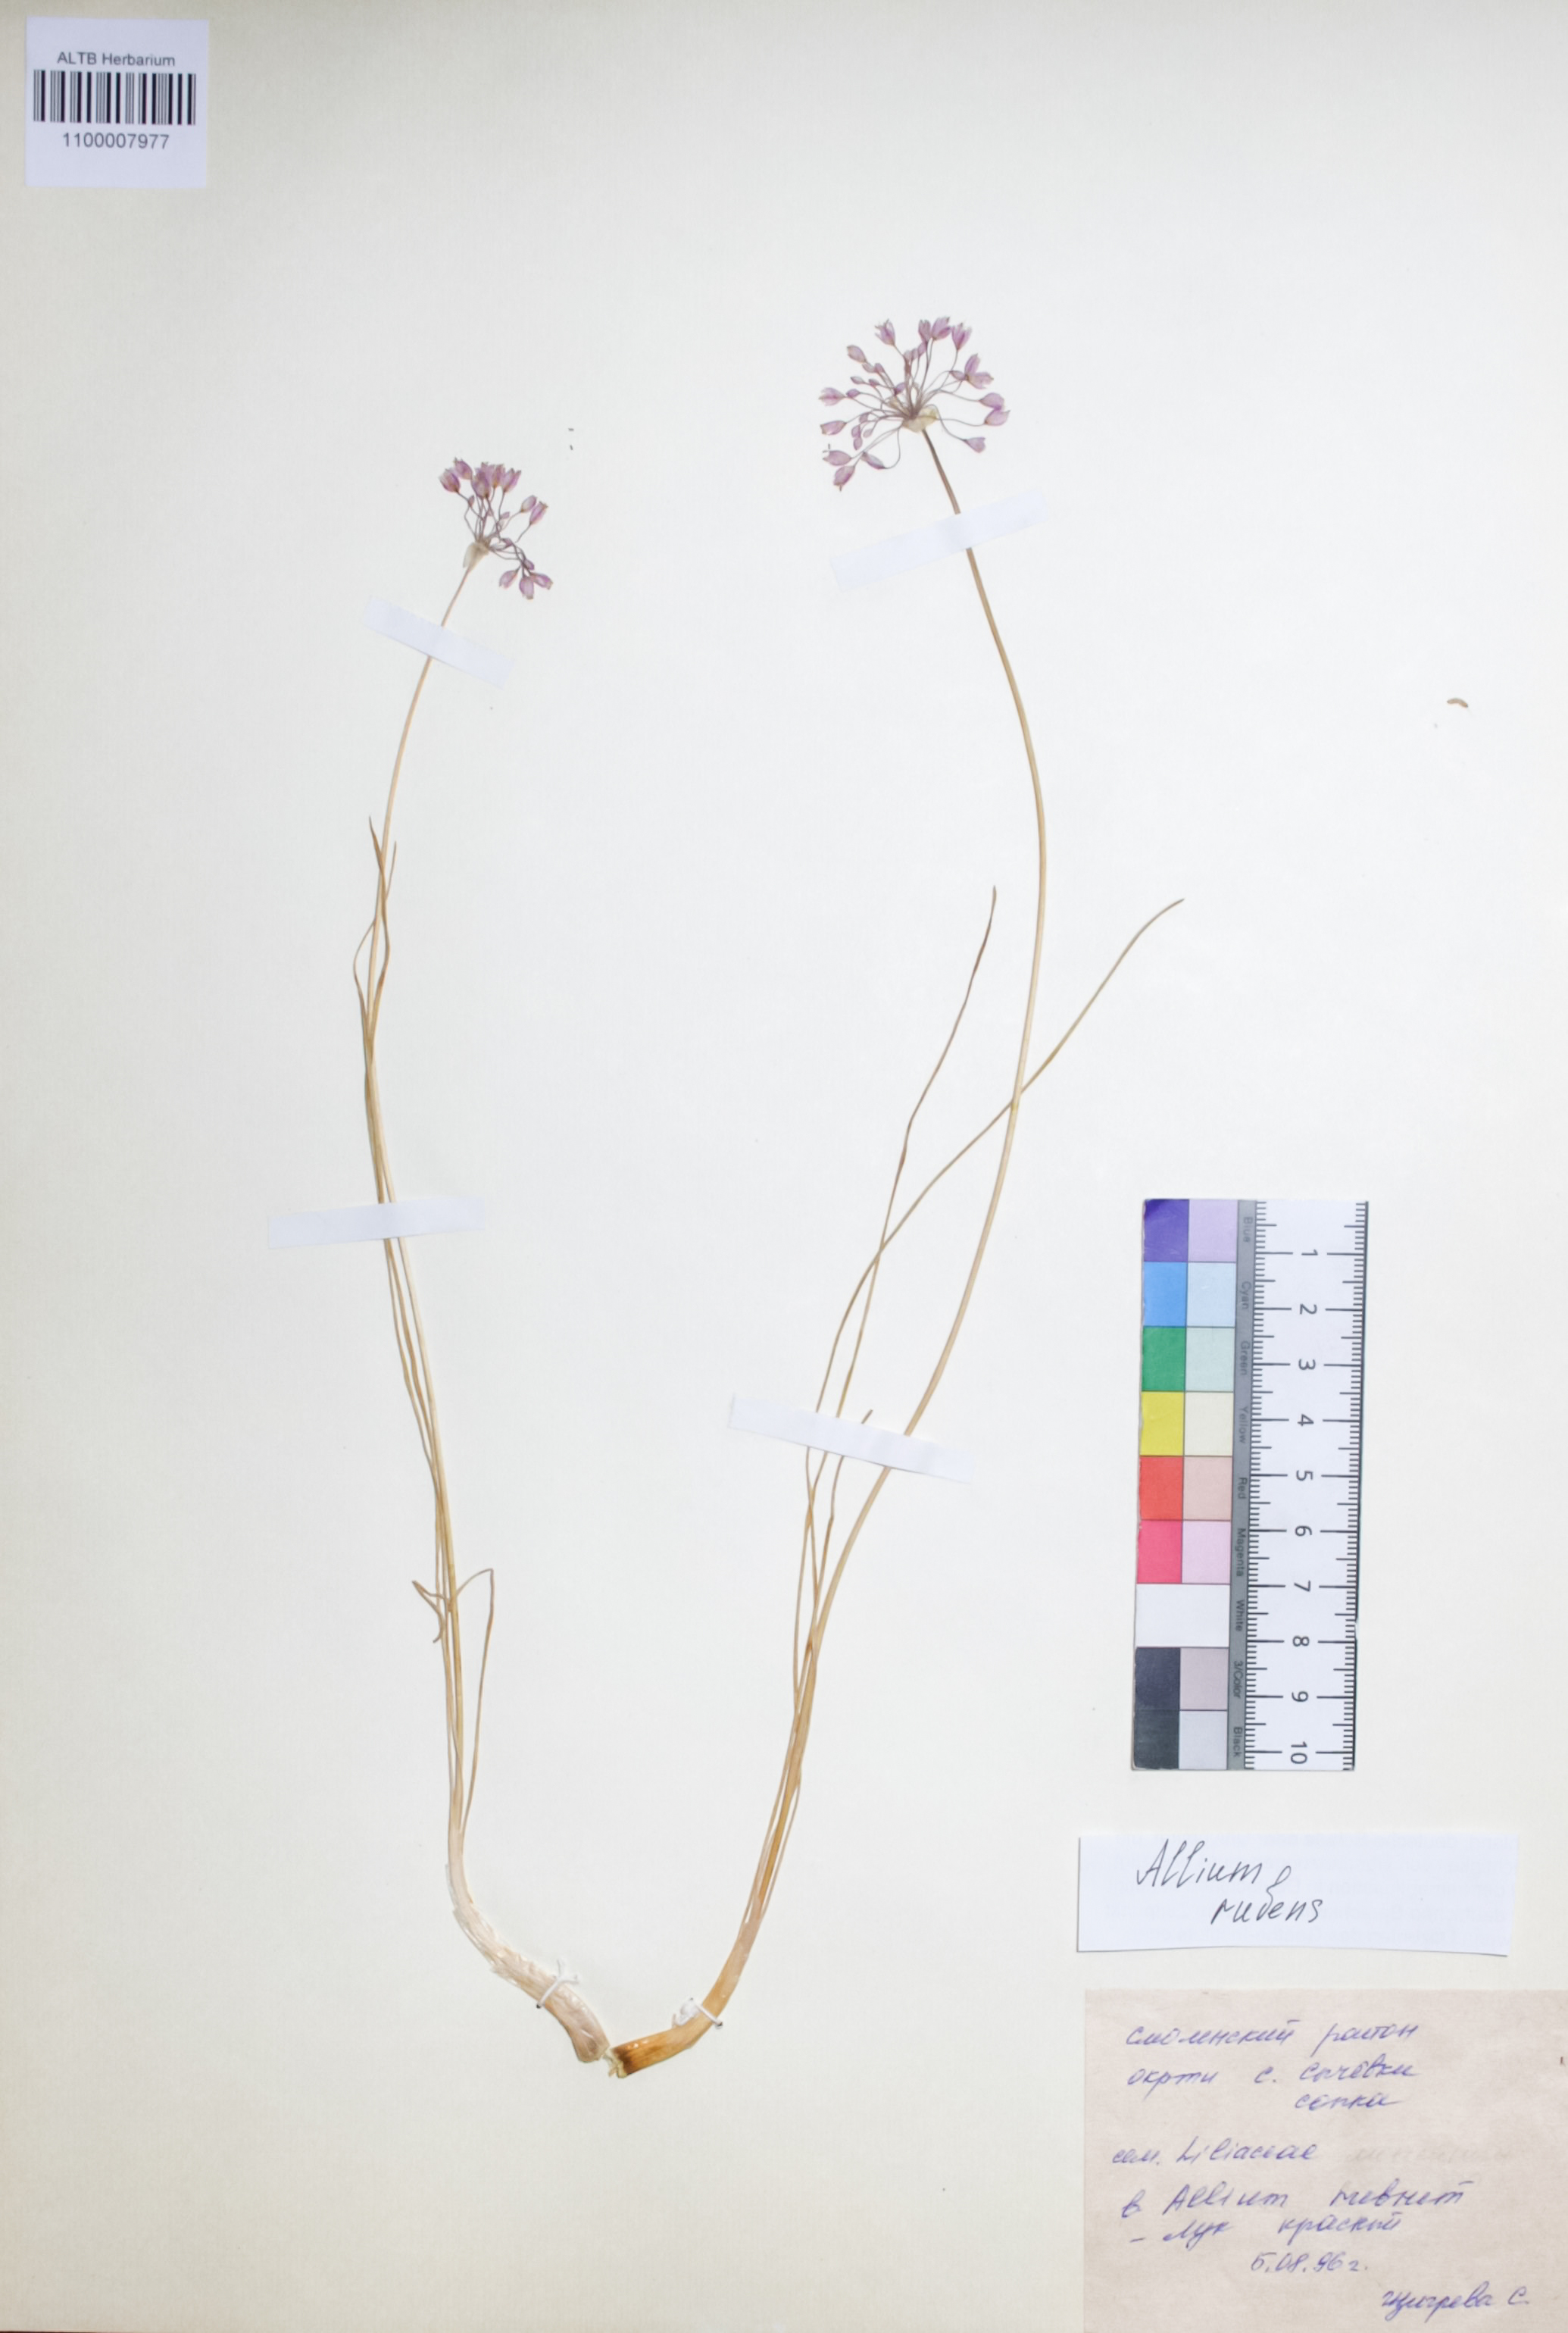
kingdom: Plantae
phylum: Tracheophyta
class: Liliopsida
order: Asparagales
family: Amaryllidaceae
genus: Allium
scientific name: Allium rubens
